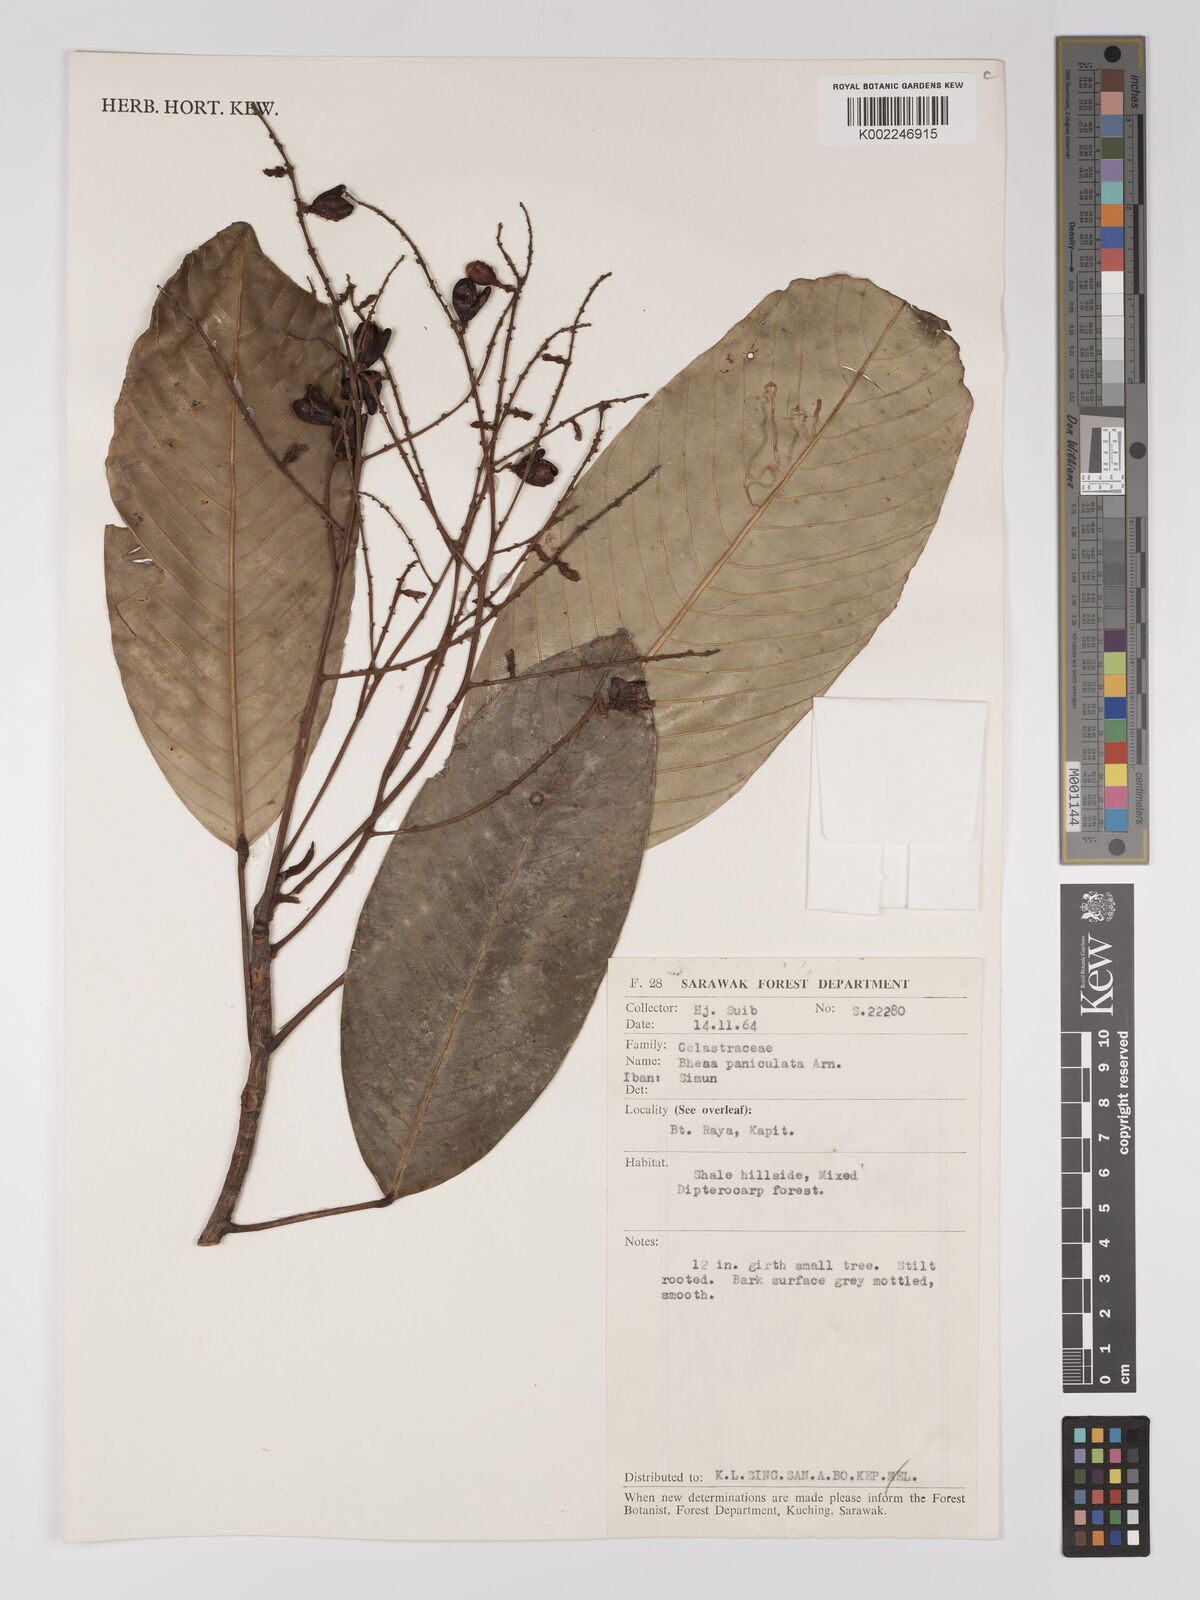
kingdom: Plantae
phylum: Tracheophyta
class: Magnoliopsida
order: Malpighiales
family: Centroplacaceae
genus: Bhesa
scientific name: Bhesa paniculata
